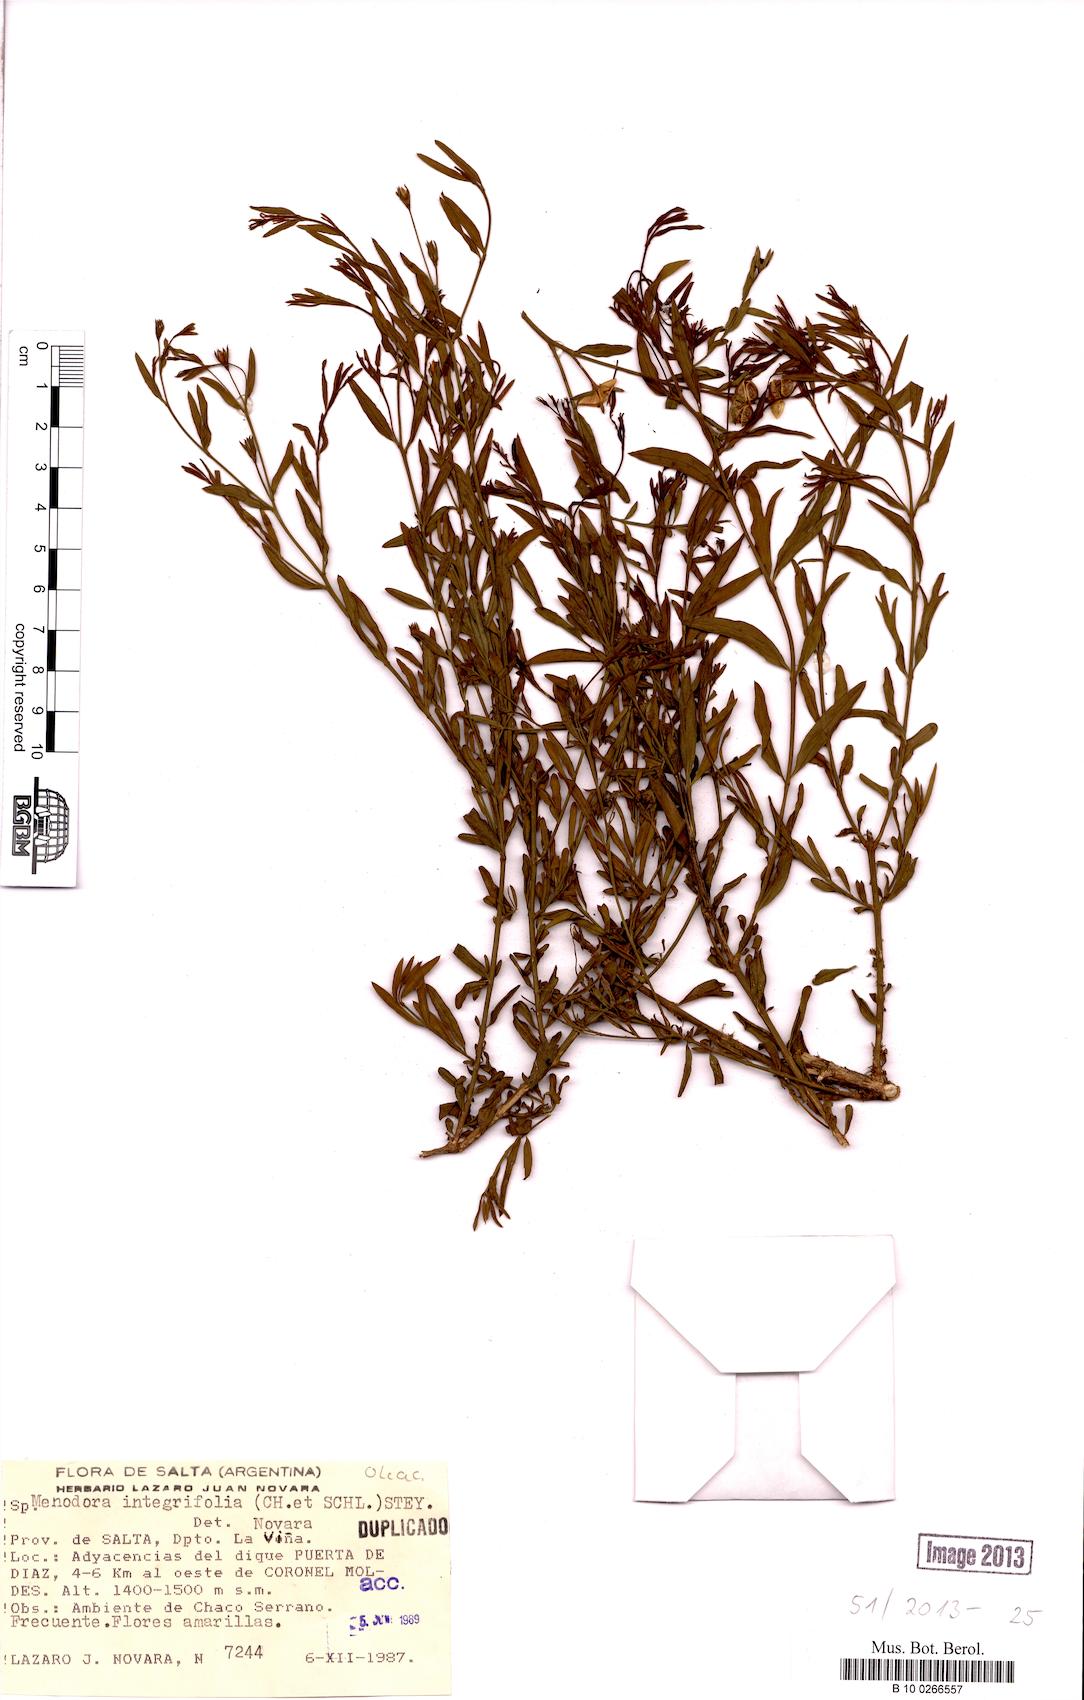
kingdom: Plantae
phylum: Tracheophyta
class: Magnoliopsida
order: Lamiales
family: Oleaceae
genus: Menodora
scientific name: Menodora integrifolia
